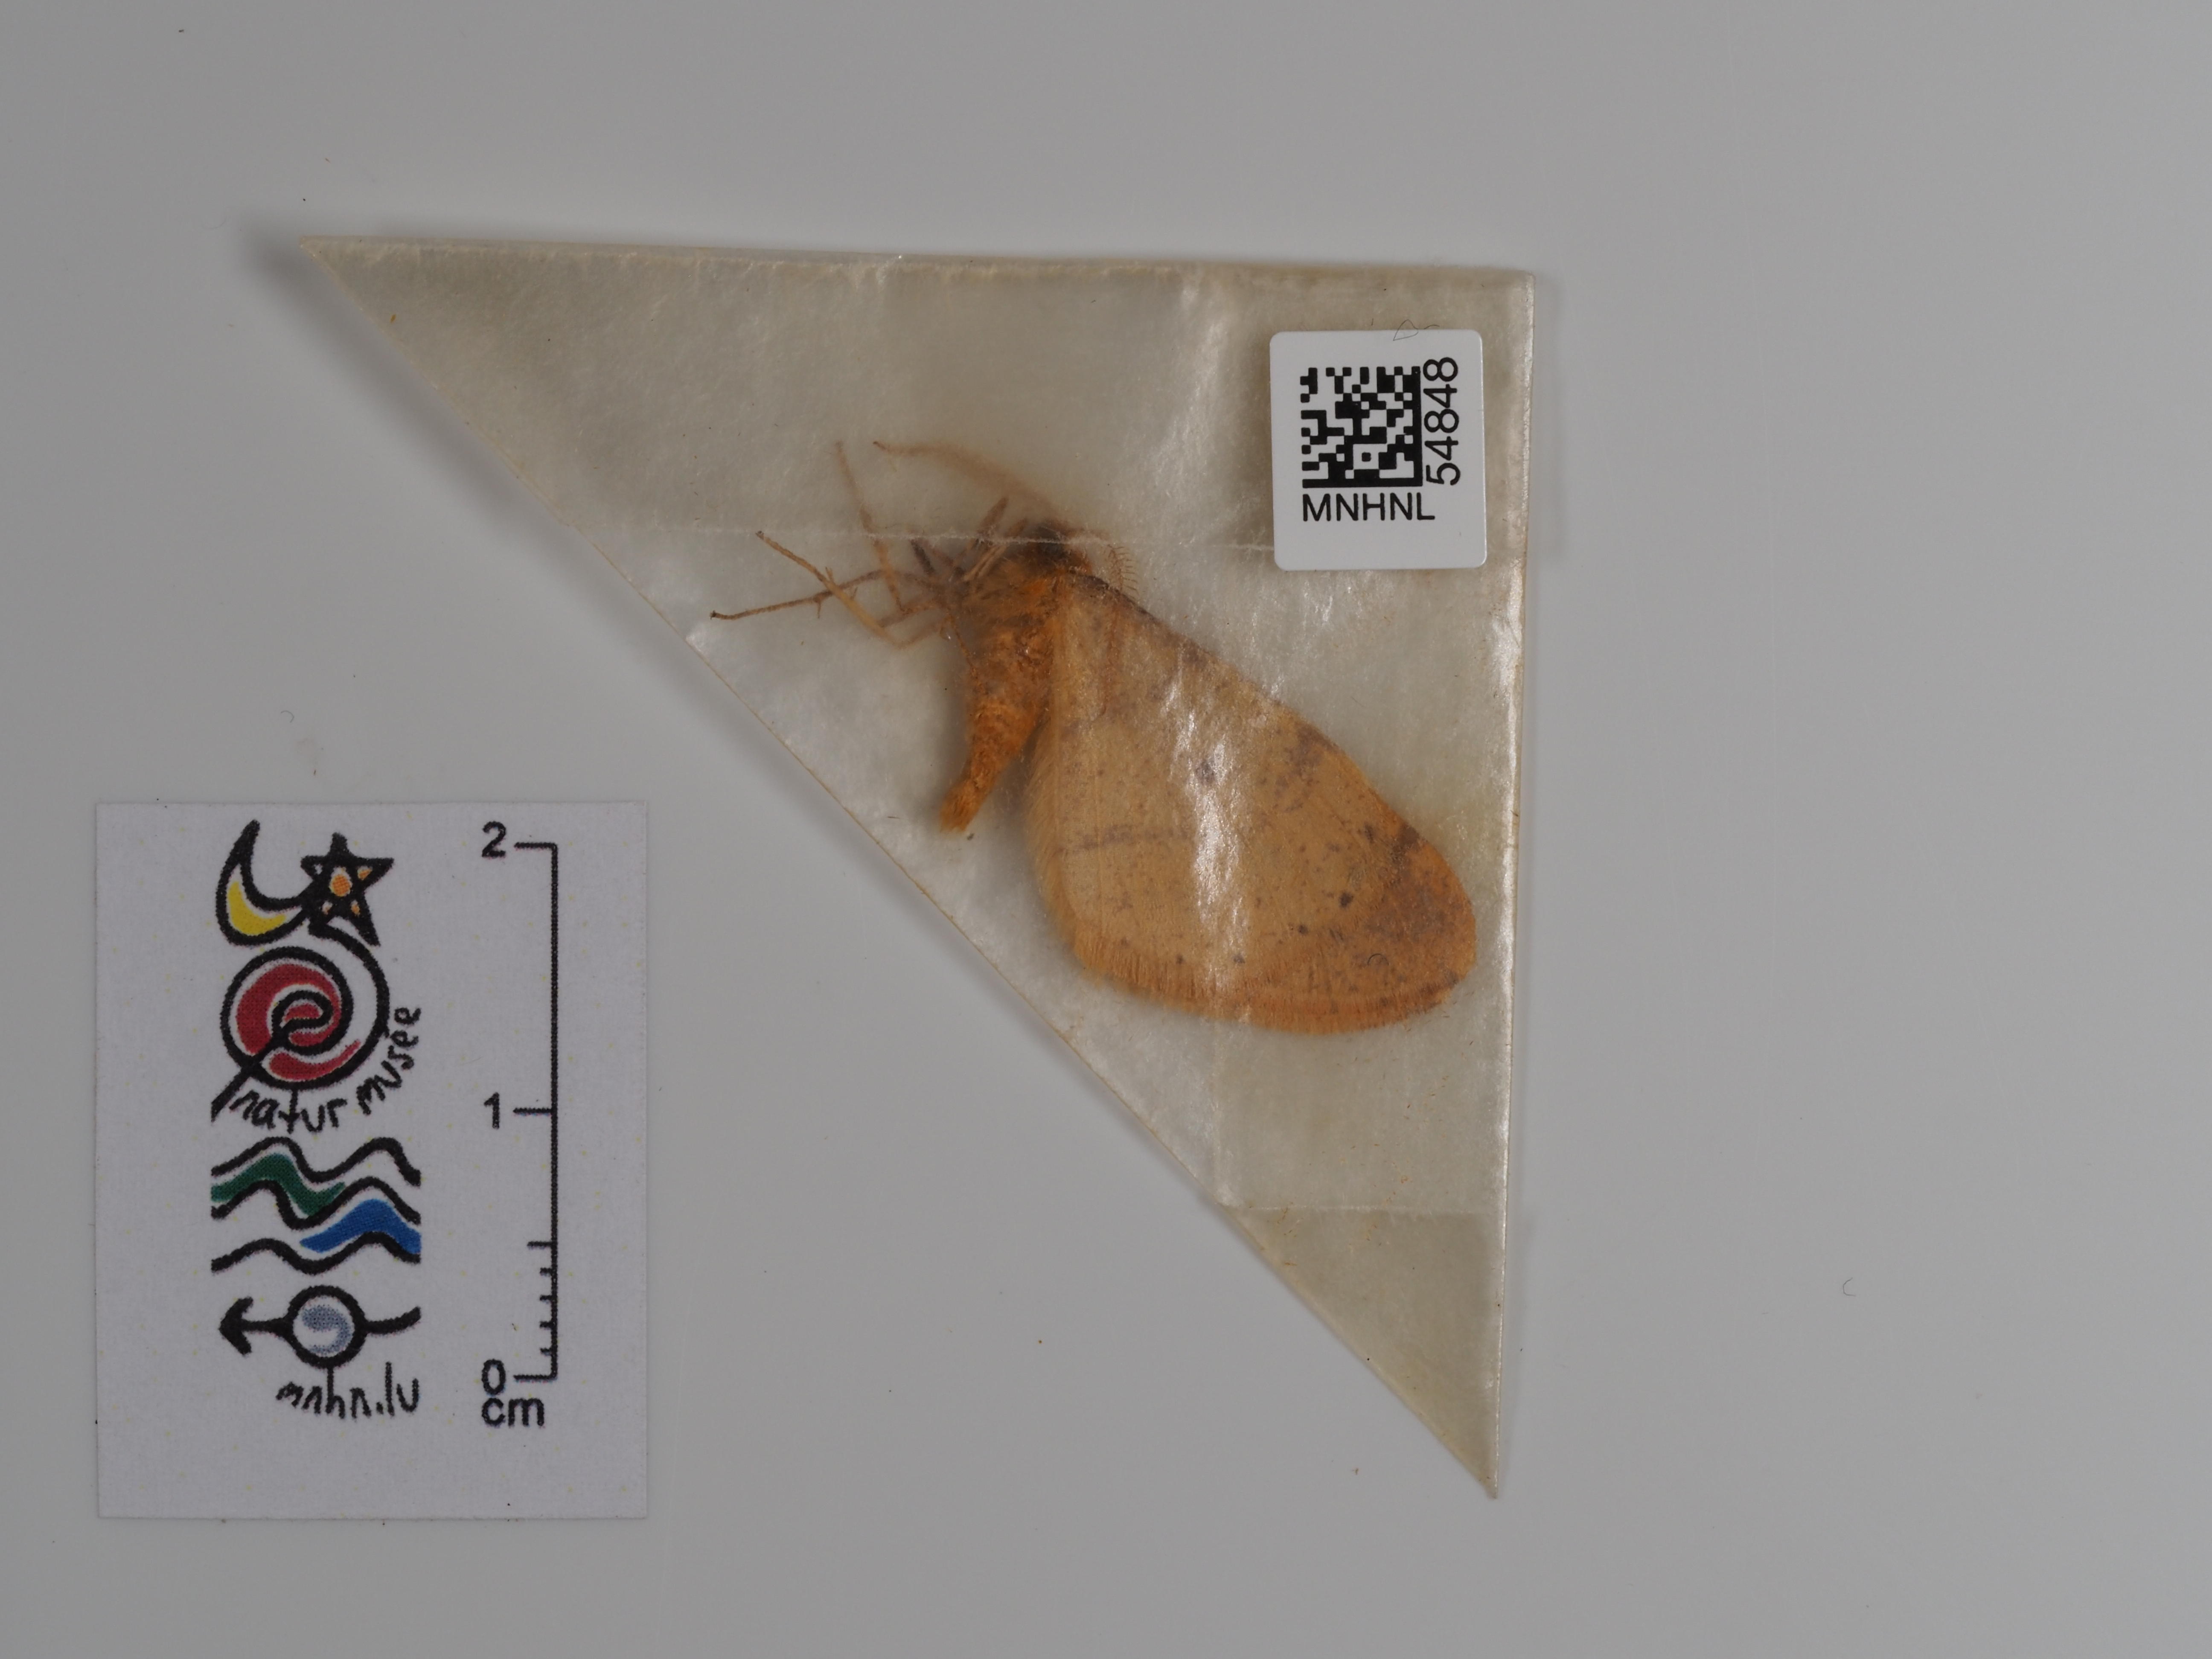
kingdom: Animalia
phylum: Arthropoda
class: Insecta
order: Lepidoptera
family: Geometridae
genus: Agriopis
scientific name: Agriopis aurantiaria
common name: Scarce umber
